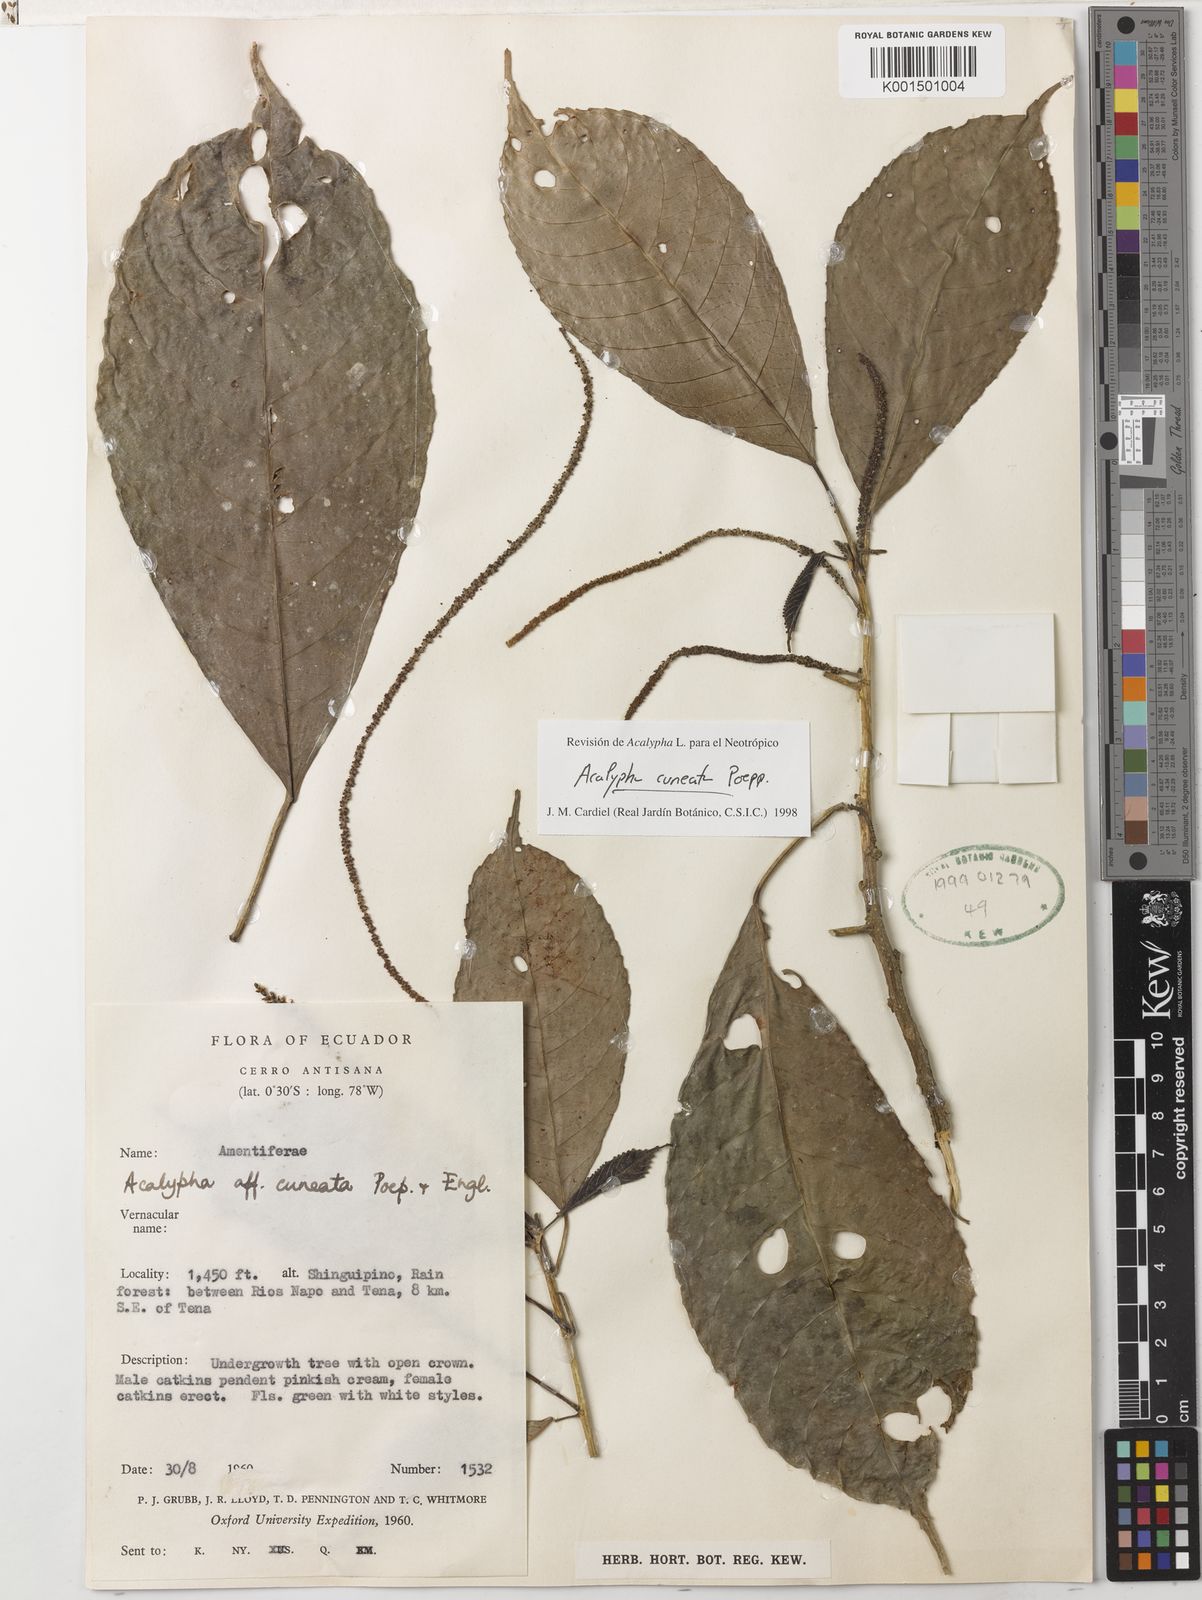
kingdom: Plantae
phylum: Tracheophyta
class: Magnoliopsida
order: Malpighiales
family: Euphorbiaceae
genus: Acalypha
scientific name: Acalypha cuneata
